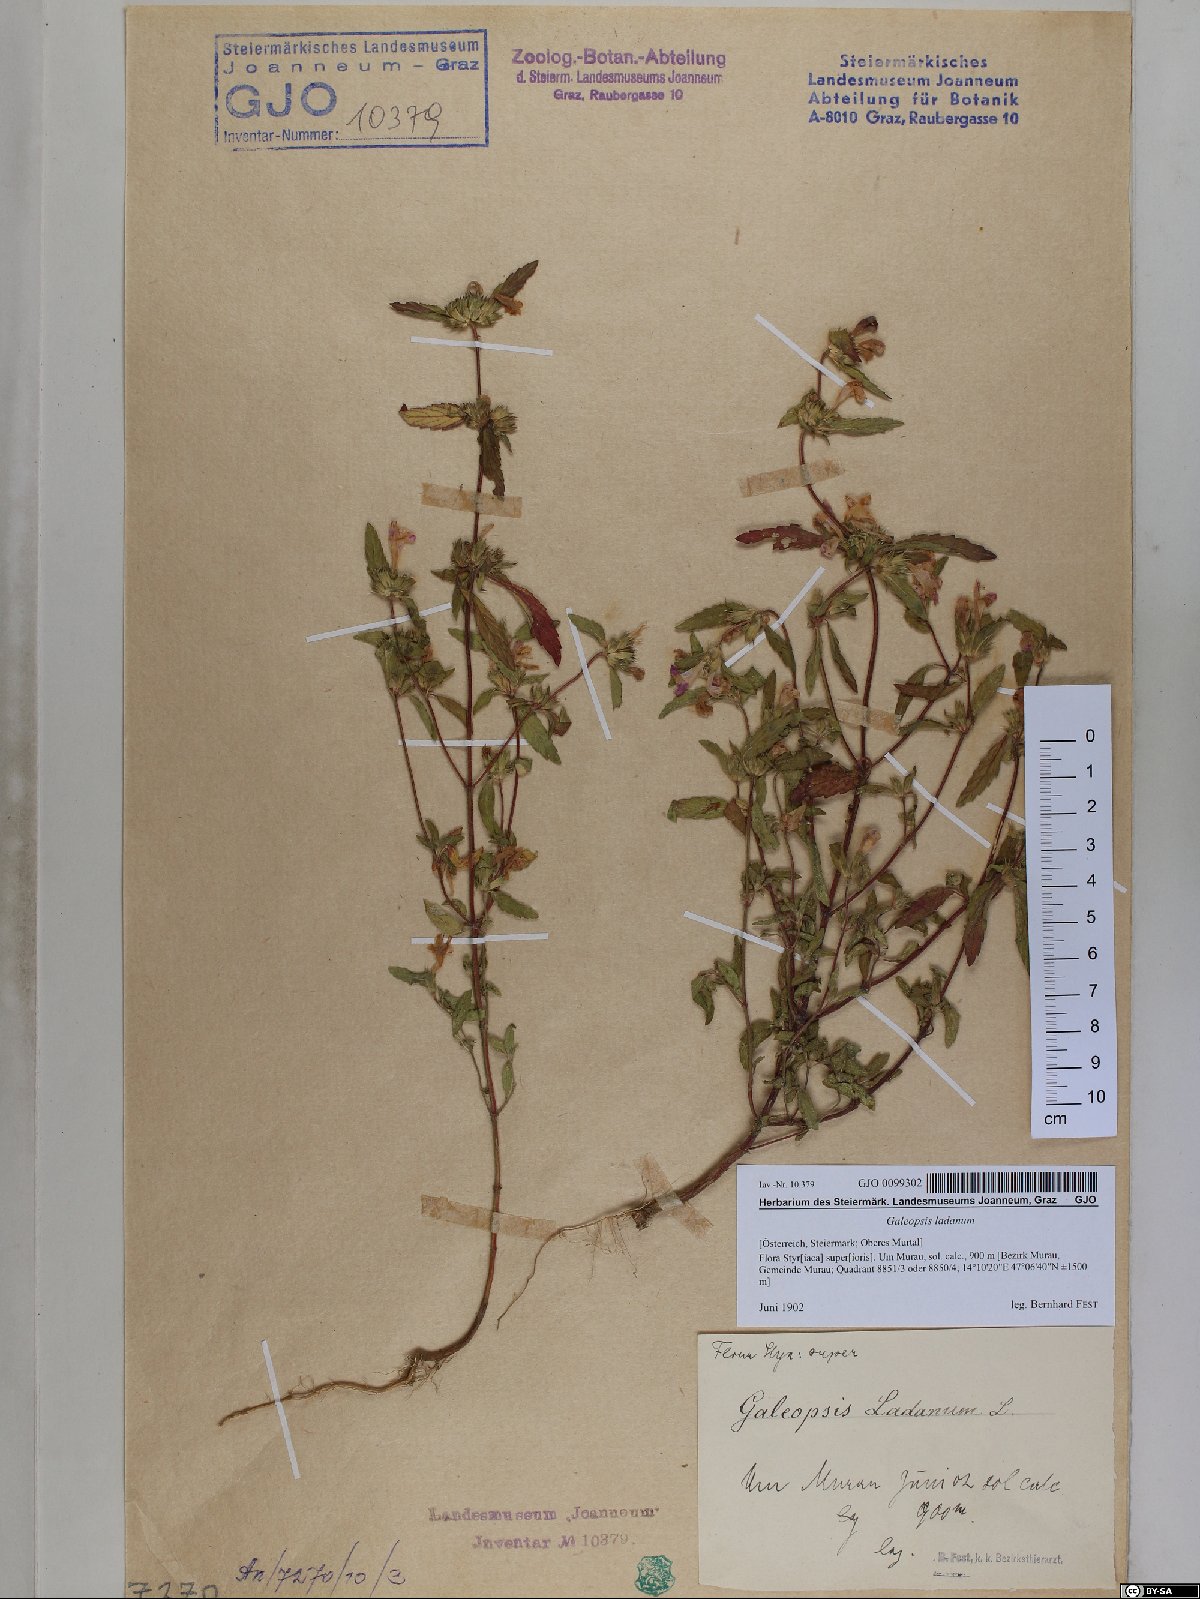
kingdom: Plantae
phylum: Tracheophyta
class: Magnoliopsida
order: Lamiales
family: Lamiaceae
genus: Galeopsis
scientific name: Galeopsis ladanum
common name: Broad-leaved hemp-nettle
